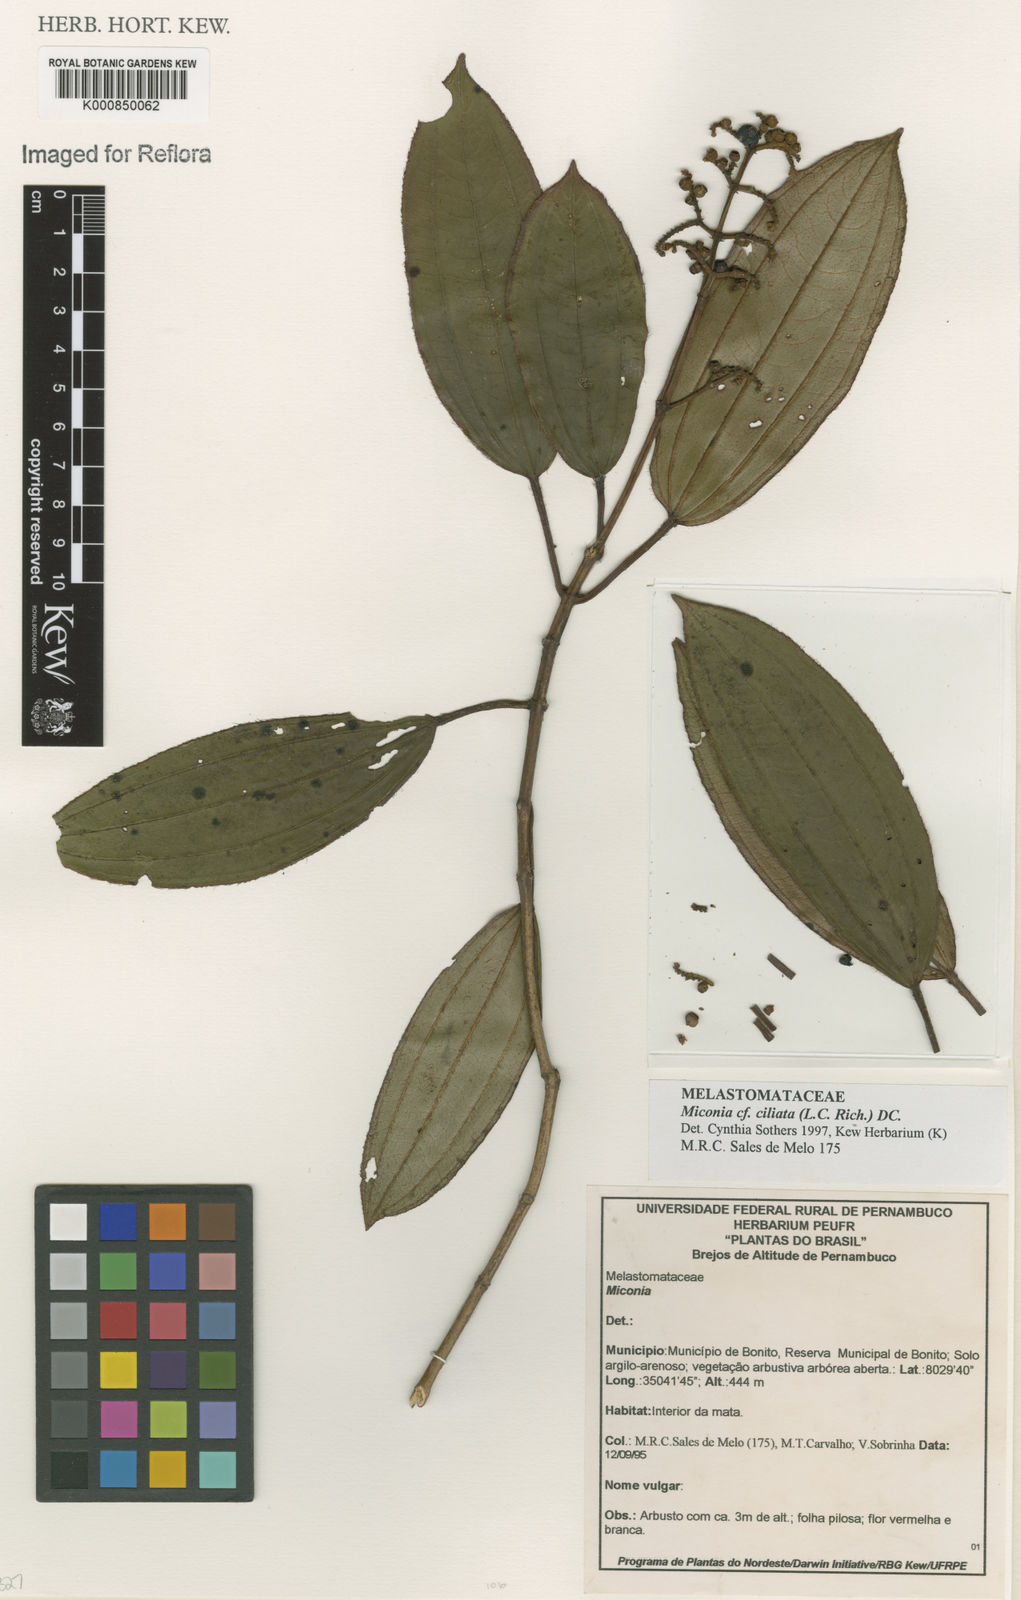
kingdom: Plantae
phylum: Tracheophyta
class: Magnoliopsida
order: Myrtales
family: Melastomataceae
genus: Miconia
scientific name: Miconia ciliata
